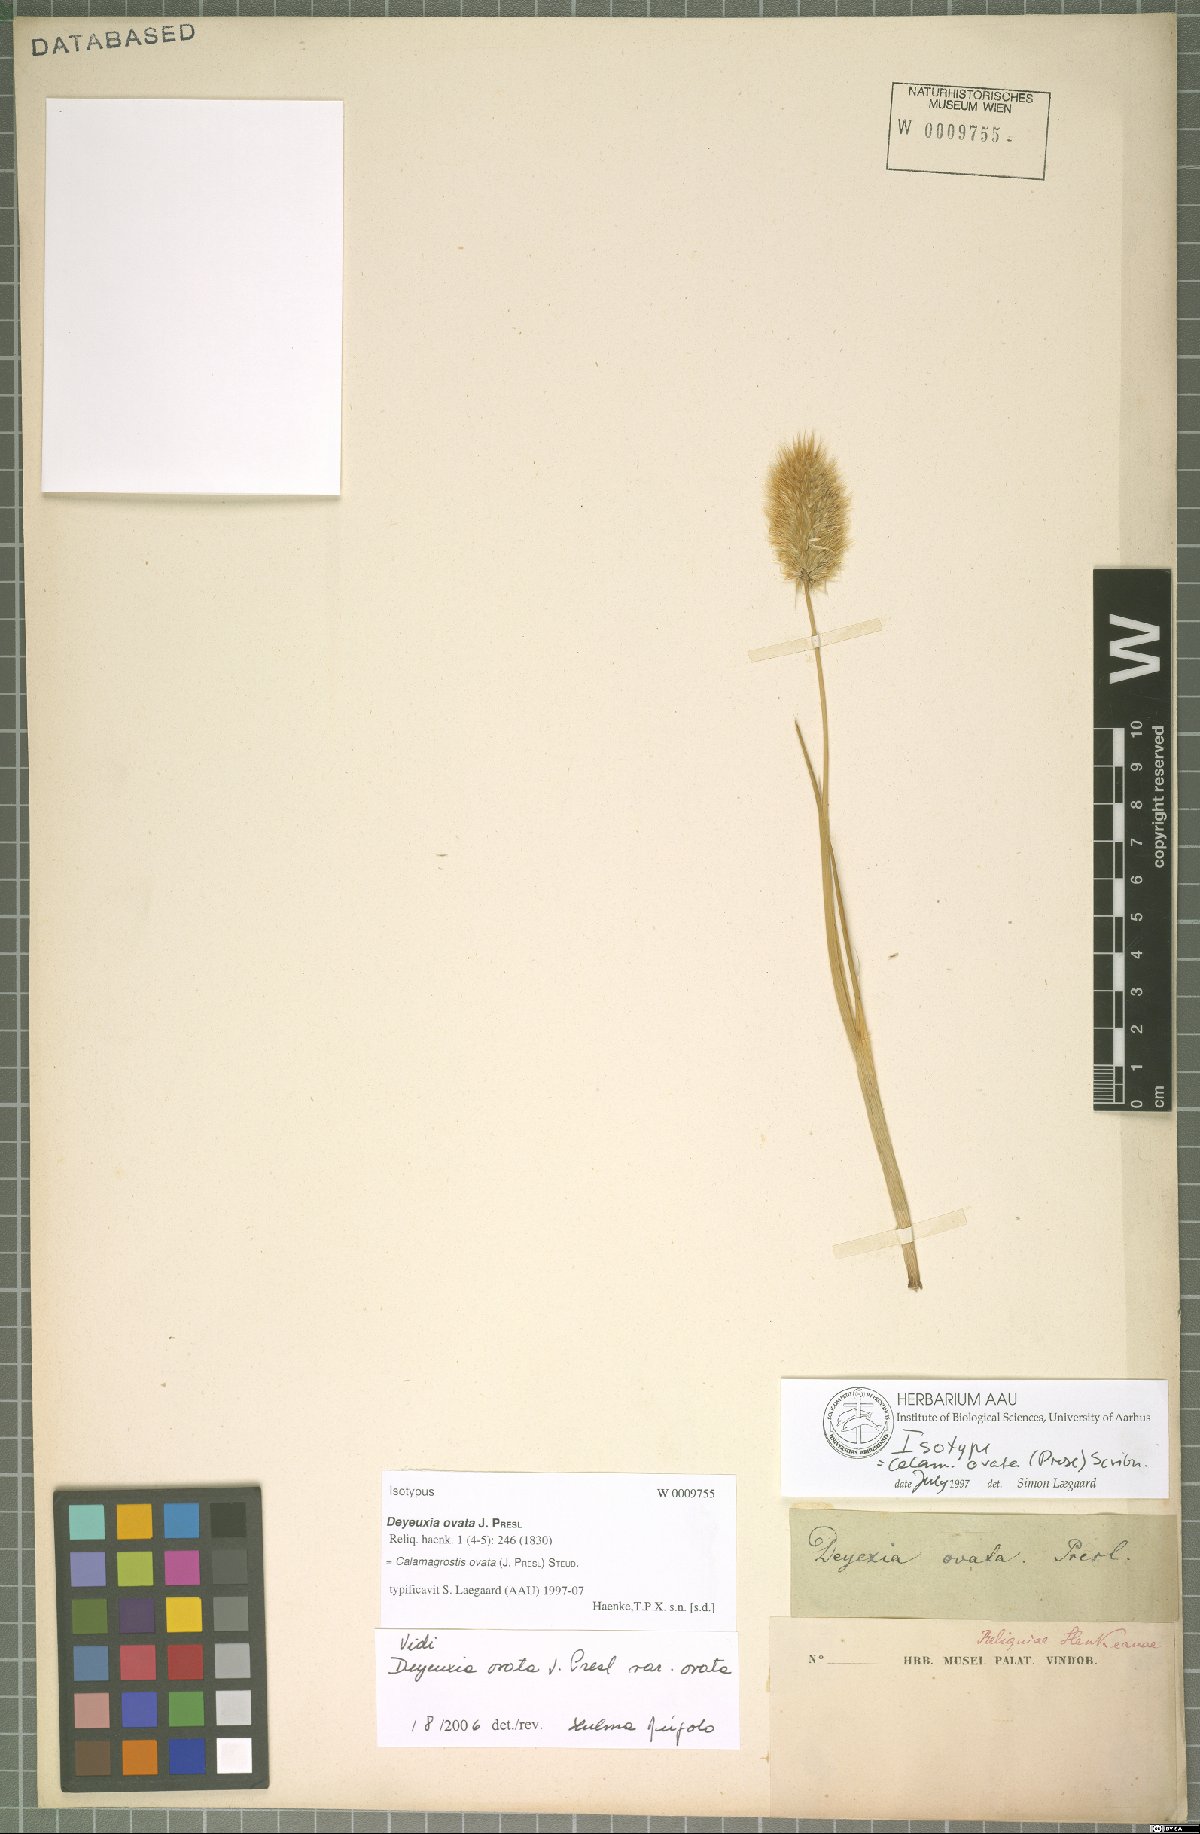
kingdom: Plantae
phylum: Tracheophyta
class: Liliopsida
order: Poales
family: Poaceae
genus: Deschampsia
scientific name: Deschampsia ovata
